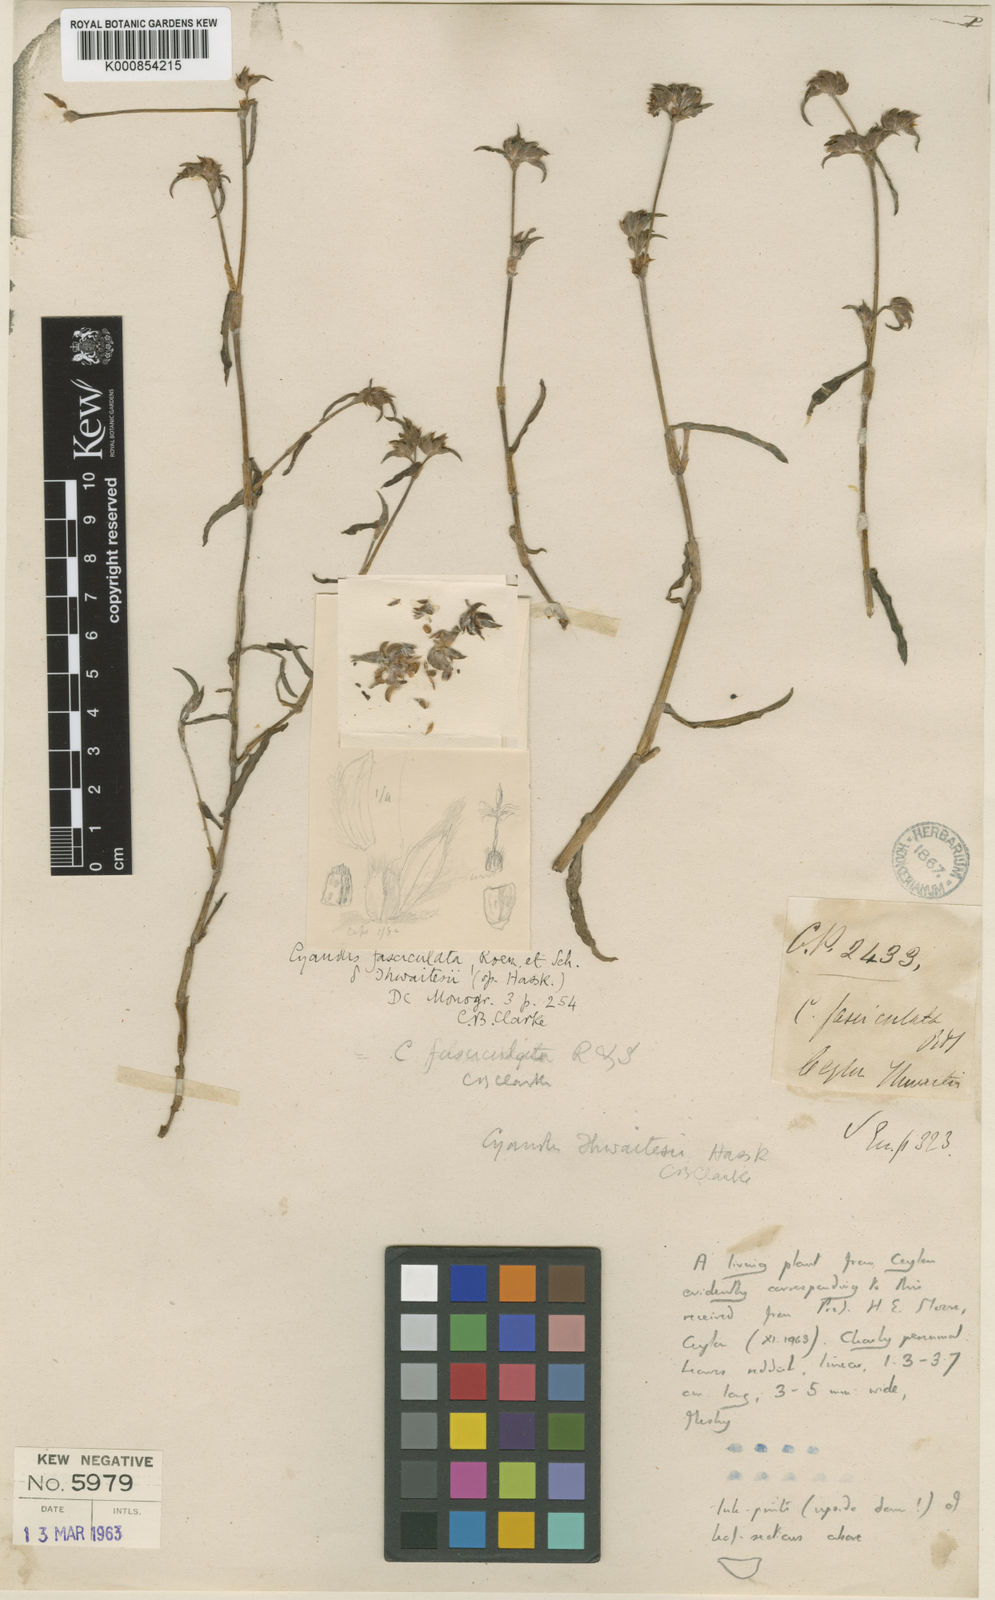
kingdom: Plantae
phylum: Tracheophyta
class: Liliopsida
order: Commelinales
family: Commelinaceae
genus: Cyanotis
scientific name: Cyanotis fasciculata
